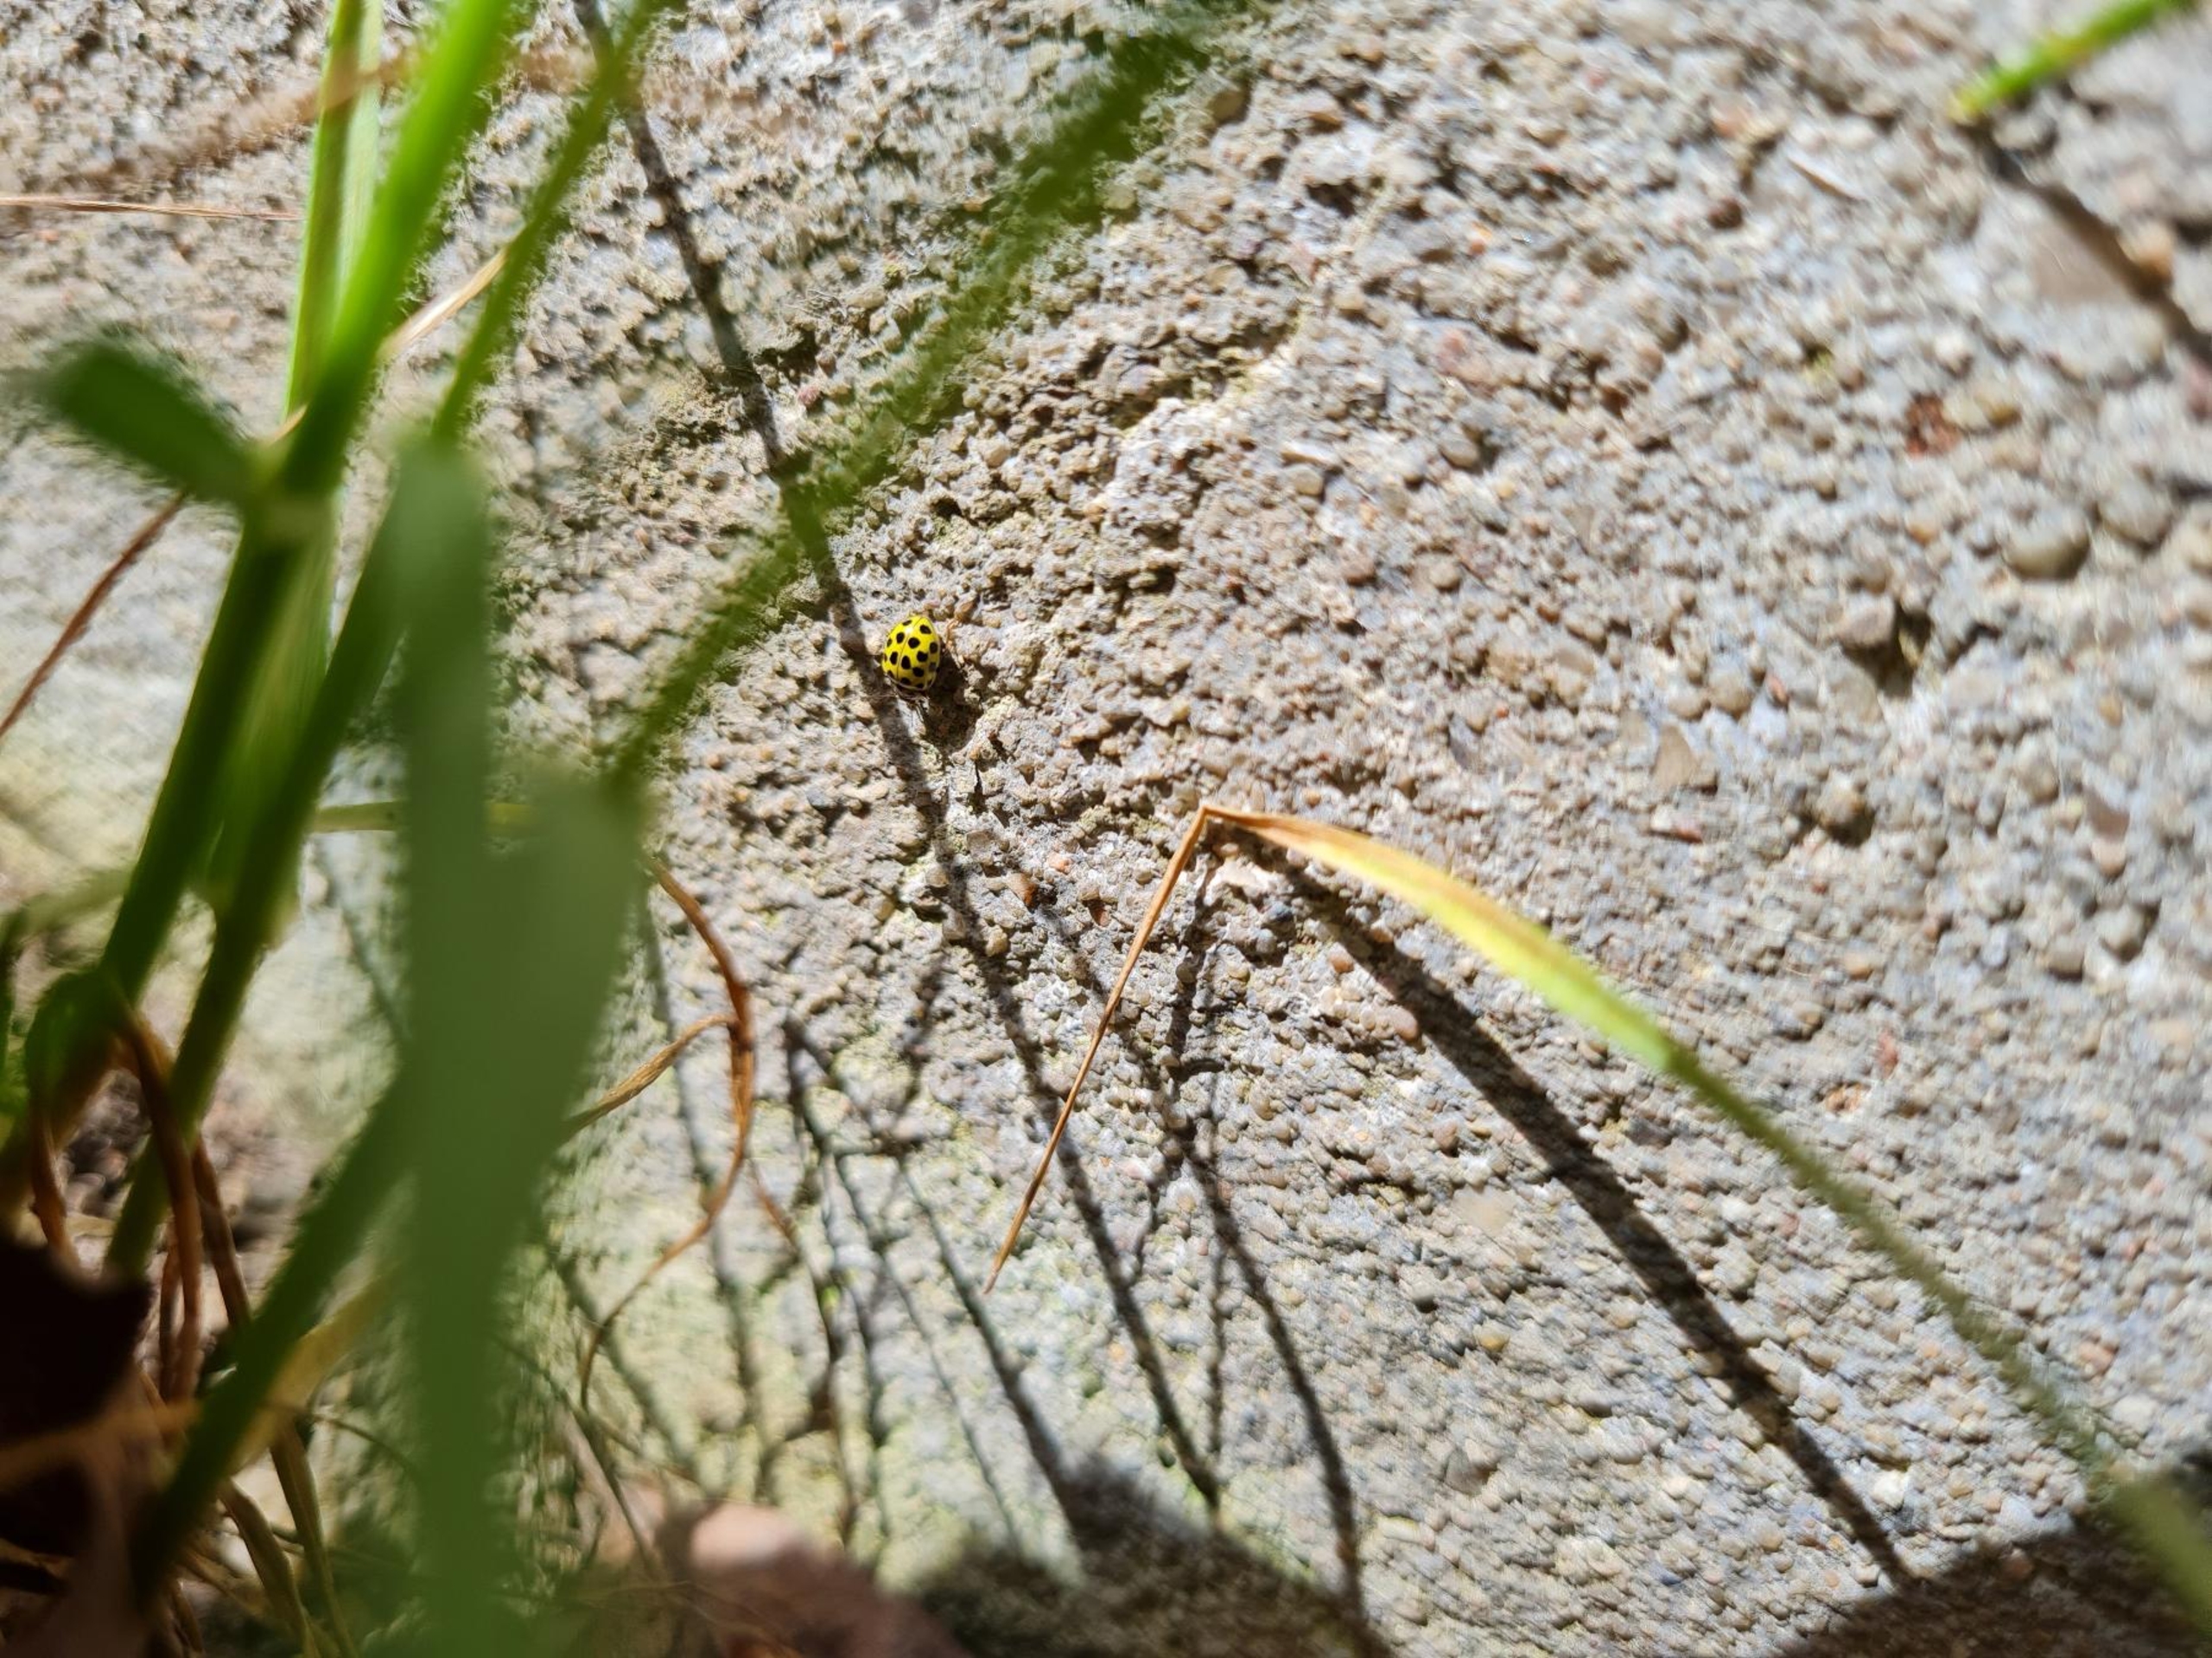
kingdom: Animalia
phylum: Arthropoda
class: Insecta
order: Coleoptera
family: Coccinellidae
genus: Psyllobora
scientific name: Psyllobora vigintiduopunctata
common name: Toogtyveplettet mariehøne
